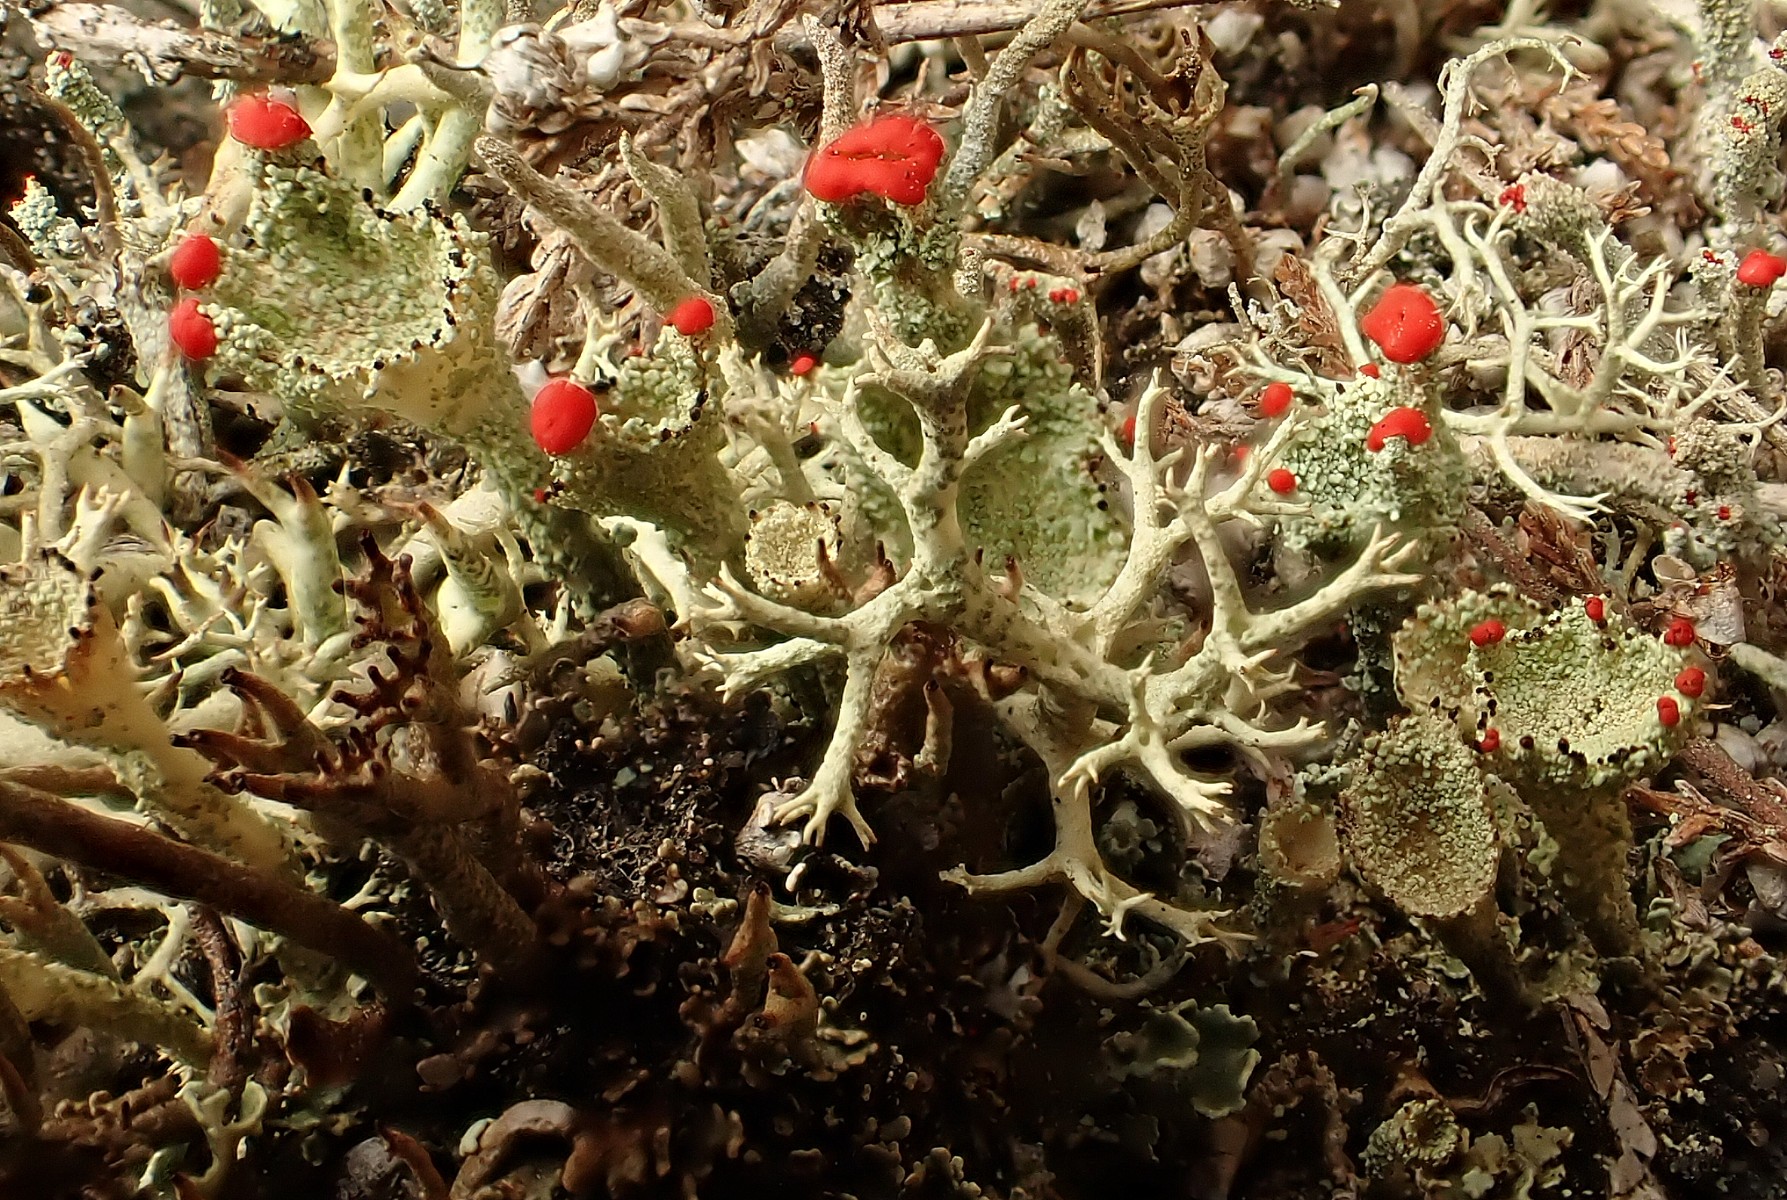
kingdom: Fungi
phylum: Ascomycota
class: Lecanoromycetes
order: Lecanorales
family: Cladoniaceae
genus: Cladonia
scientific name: Cladonia diversa
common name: rød bægerlav
